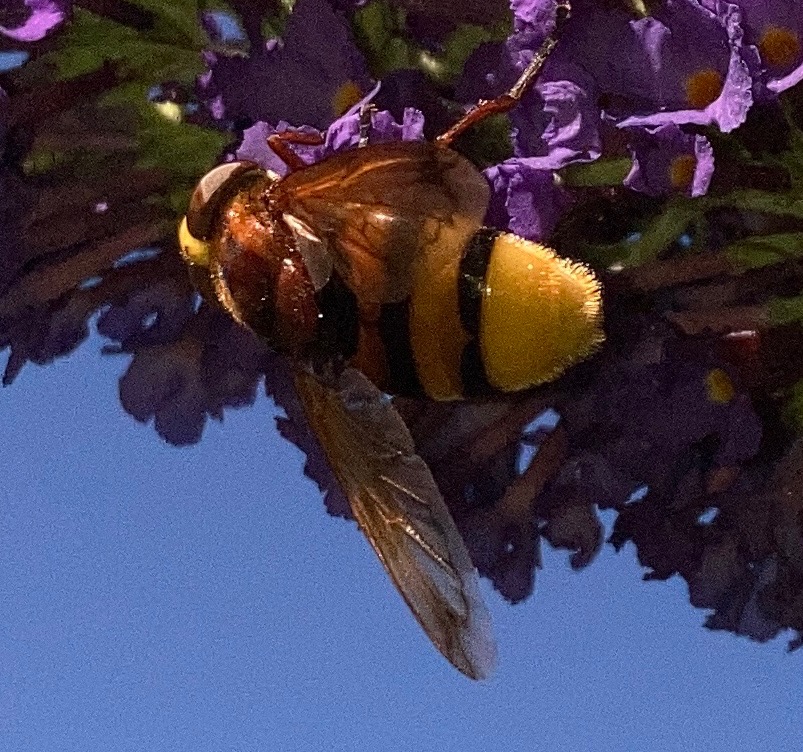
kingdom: Animalia
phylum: Arthropoda
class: Insecta
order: Diptera
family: Syrphidae
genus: Volucella
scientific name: Volucella zonaria
